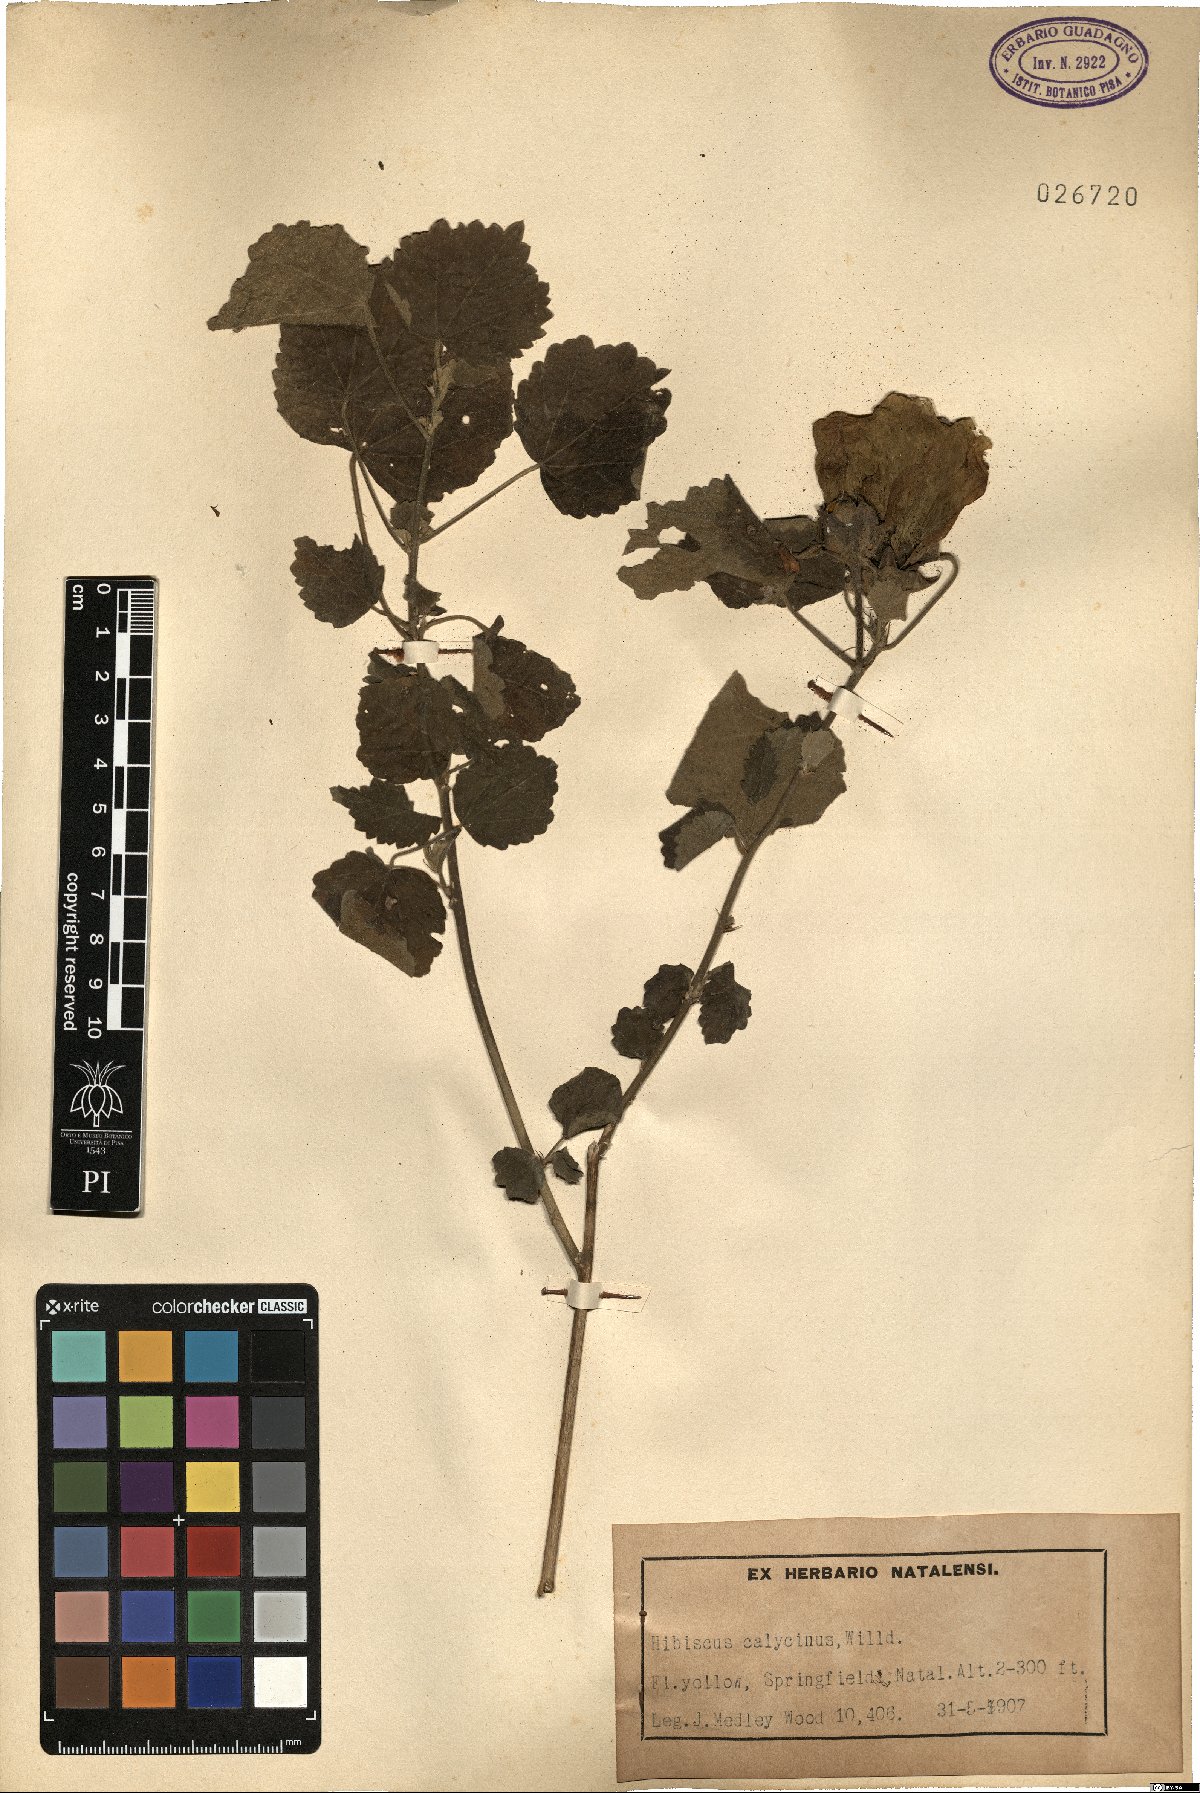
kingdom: Plantae
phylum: Tracheophyta
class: Magnoliopsida
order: Malvales
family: Malvaceae
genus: Hibiscus
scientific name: Hibiscus calyphyllus
